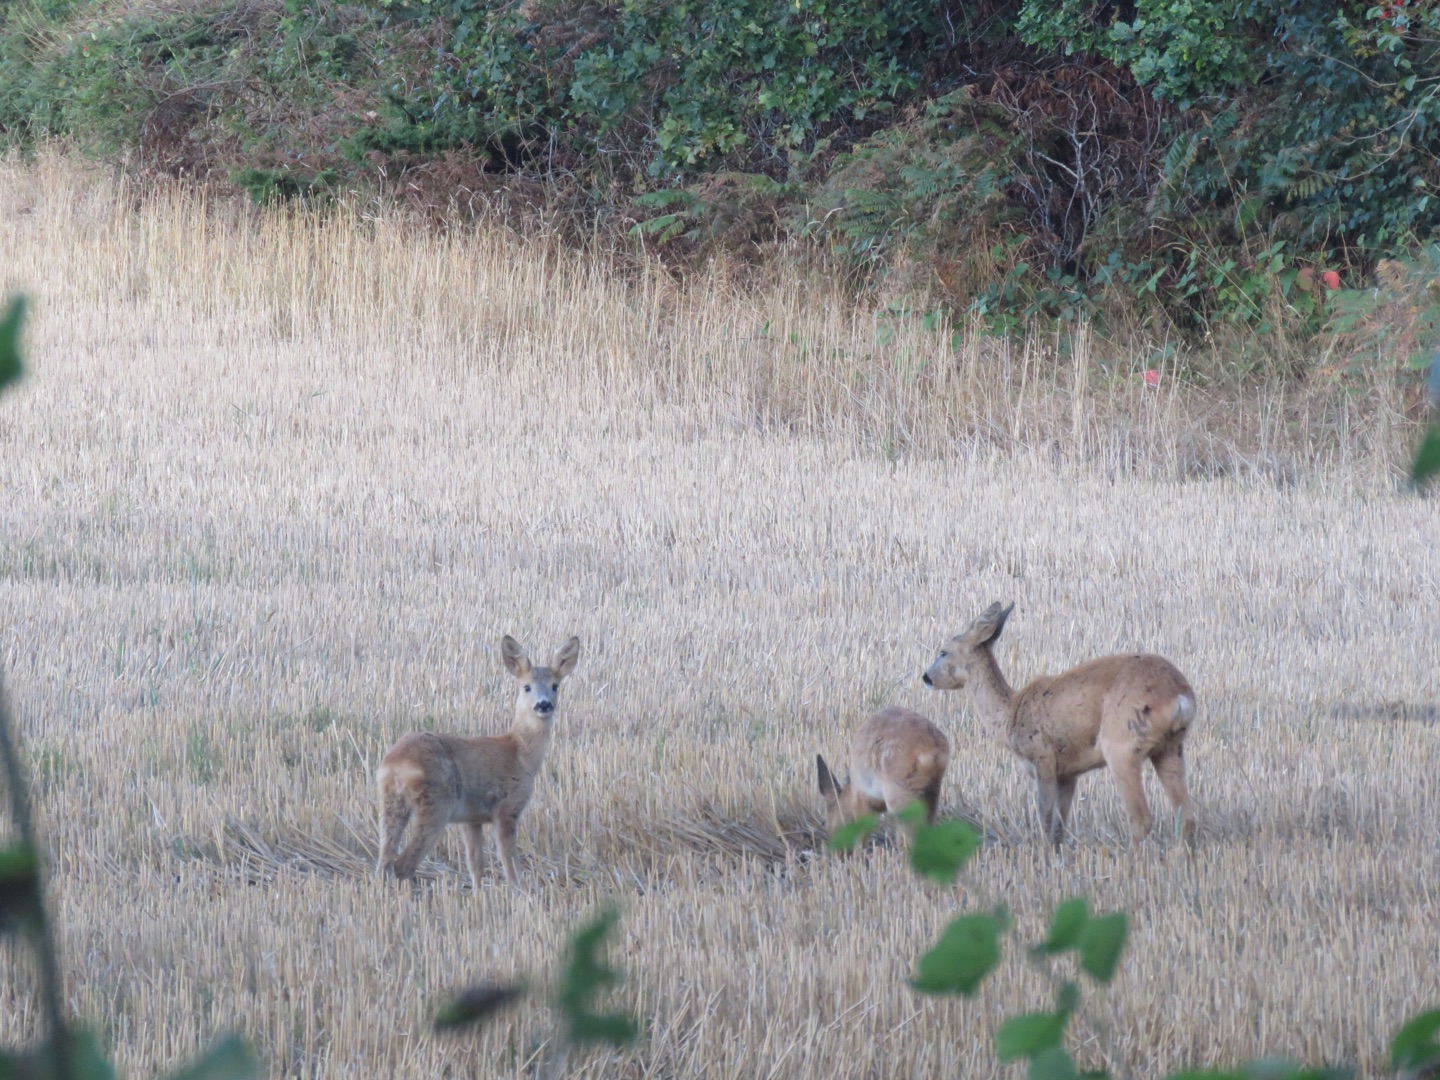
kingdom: Animalia
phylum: Chordata
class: Mammalia
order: Artiodactyla
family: Cervidae
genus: Capreolus
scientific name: Capreolus capreolus
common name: Rådyr
